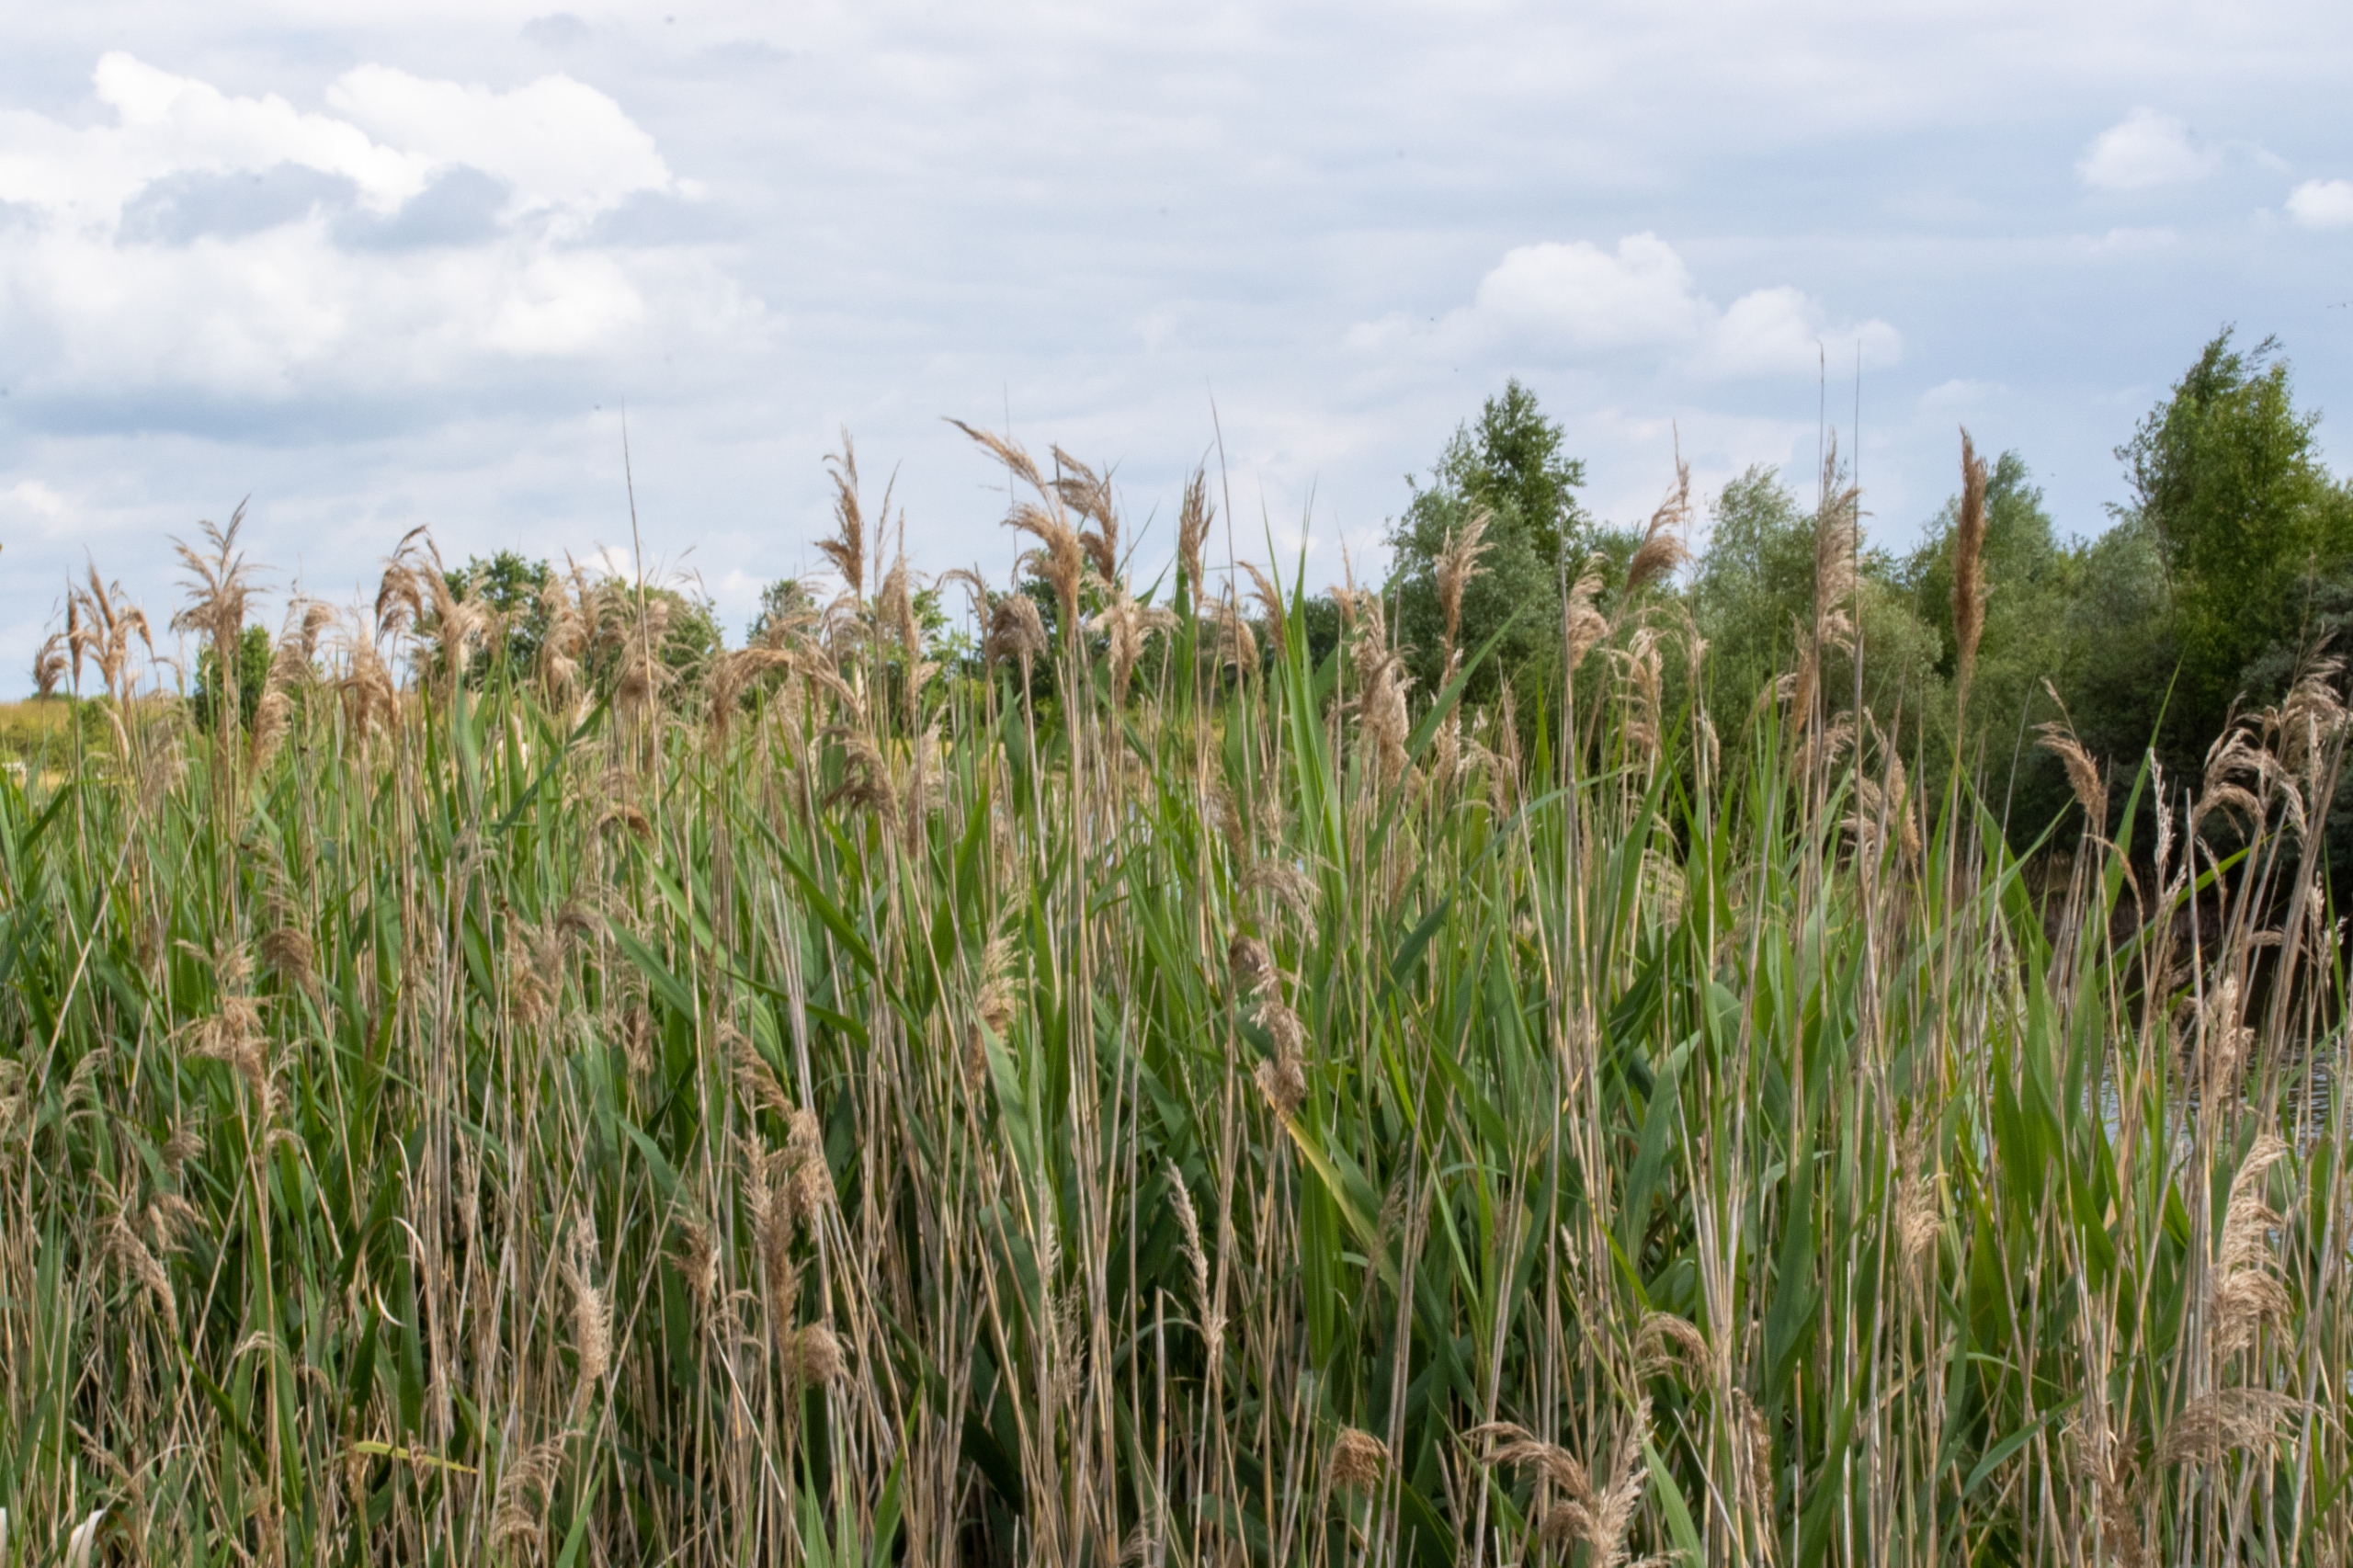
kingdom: Plantae
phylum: Tracheophyta
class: Liliopsida
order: Poales
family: Poaceae
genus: Phragmites
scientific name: Phragmites australis
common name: Tagrør
